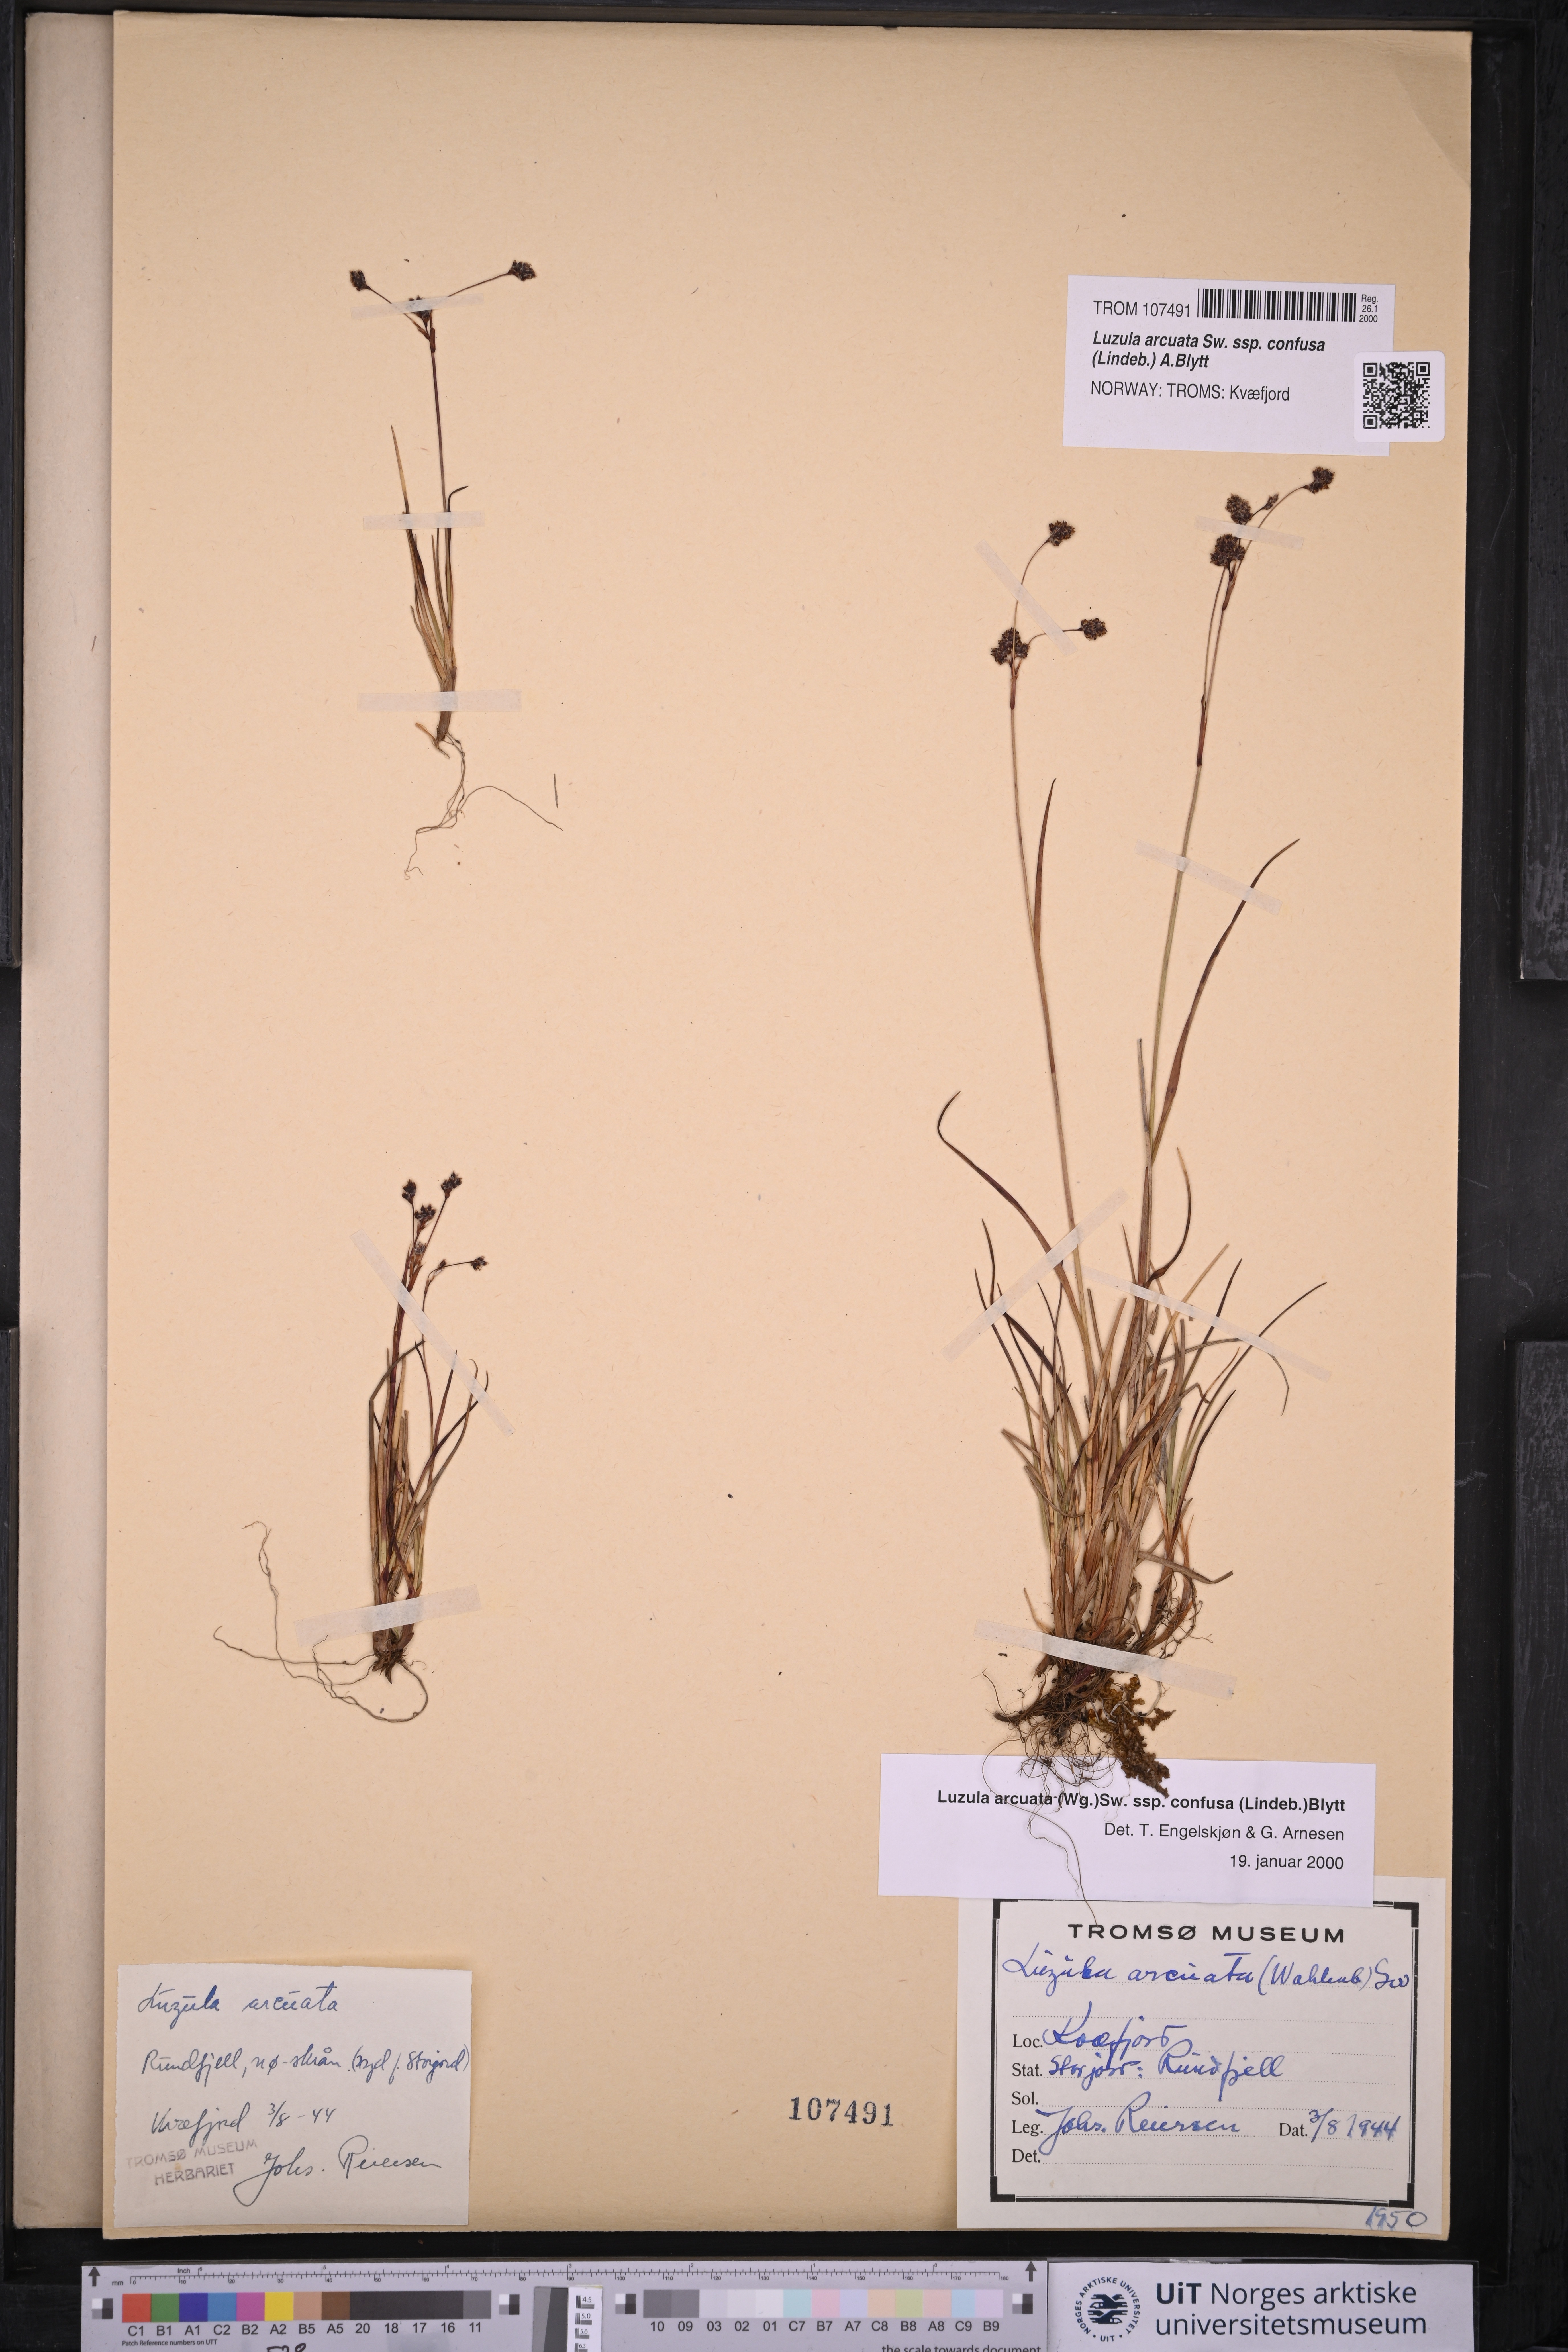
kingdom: Plantae
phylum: Tracheophyta
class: Liliopsida
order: Poales
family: Juncaceae
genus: Luzula
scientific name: Luzula confusa
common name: Northern wood rush
